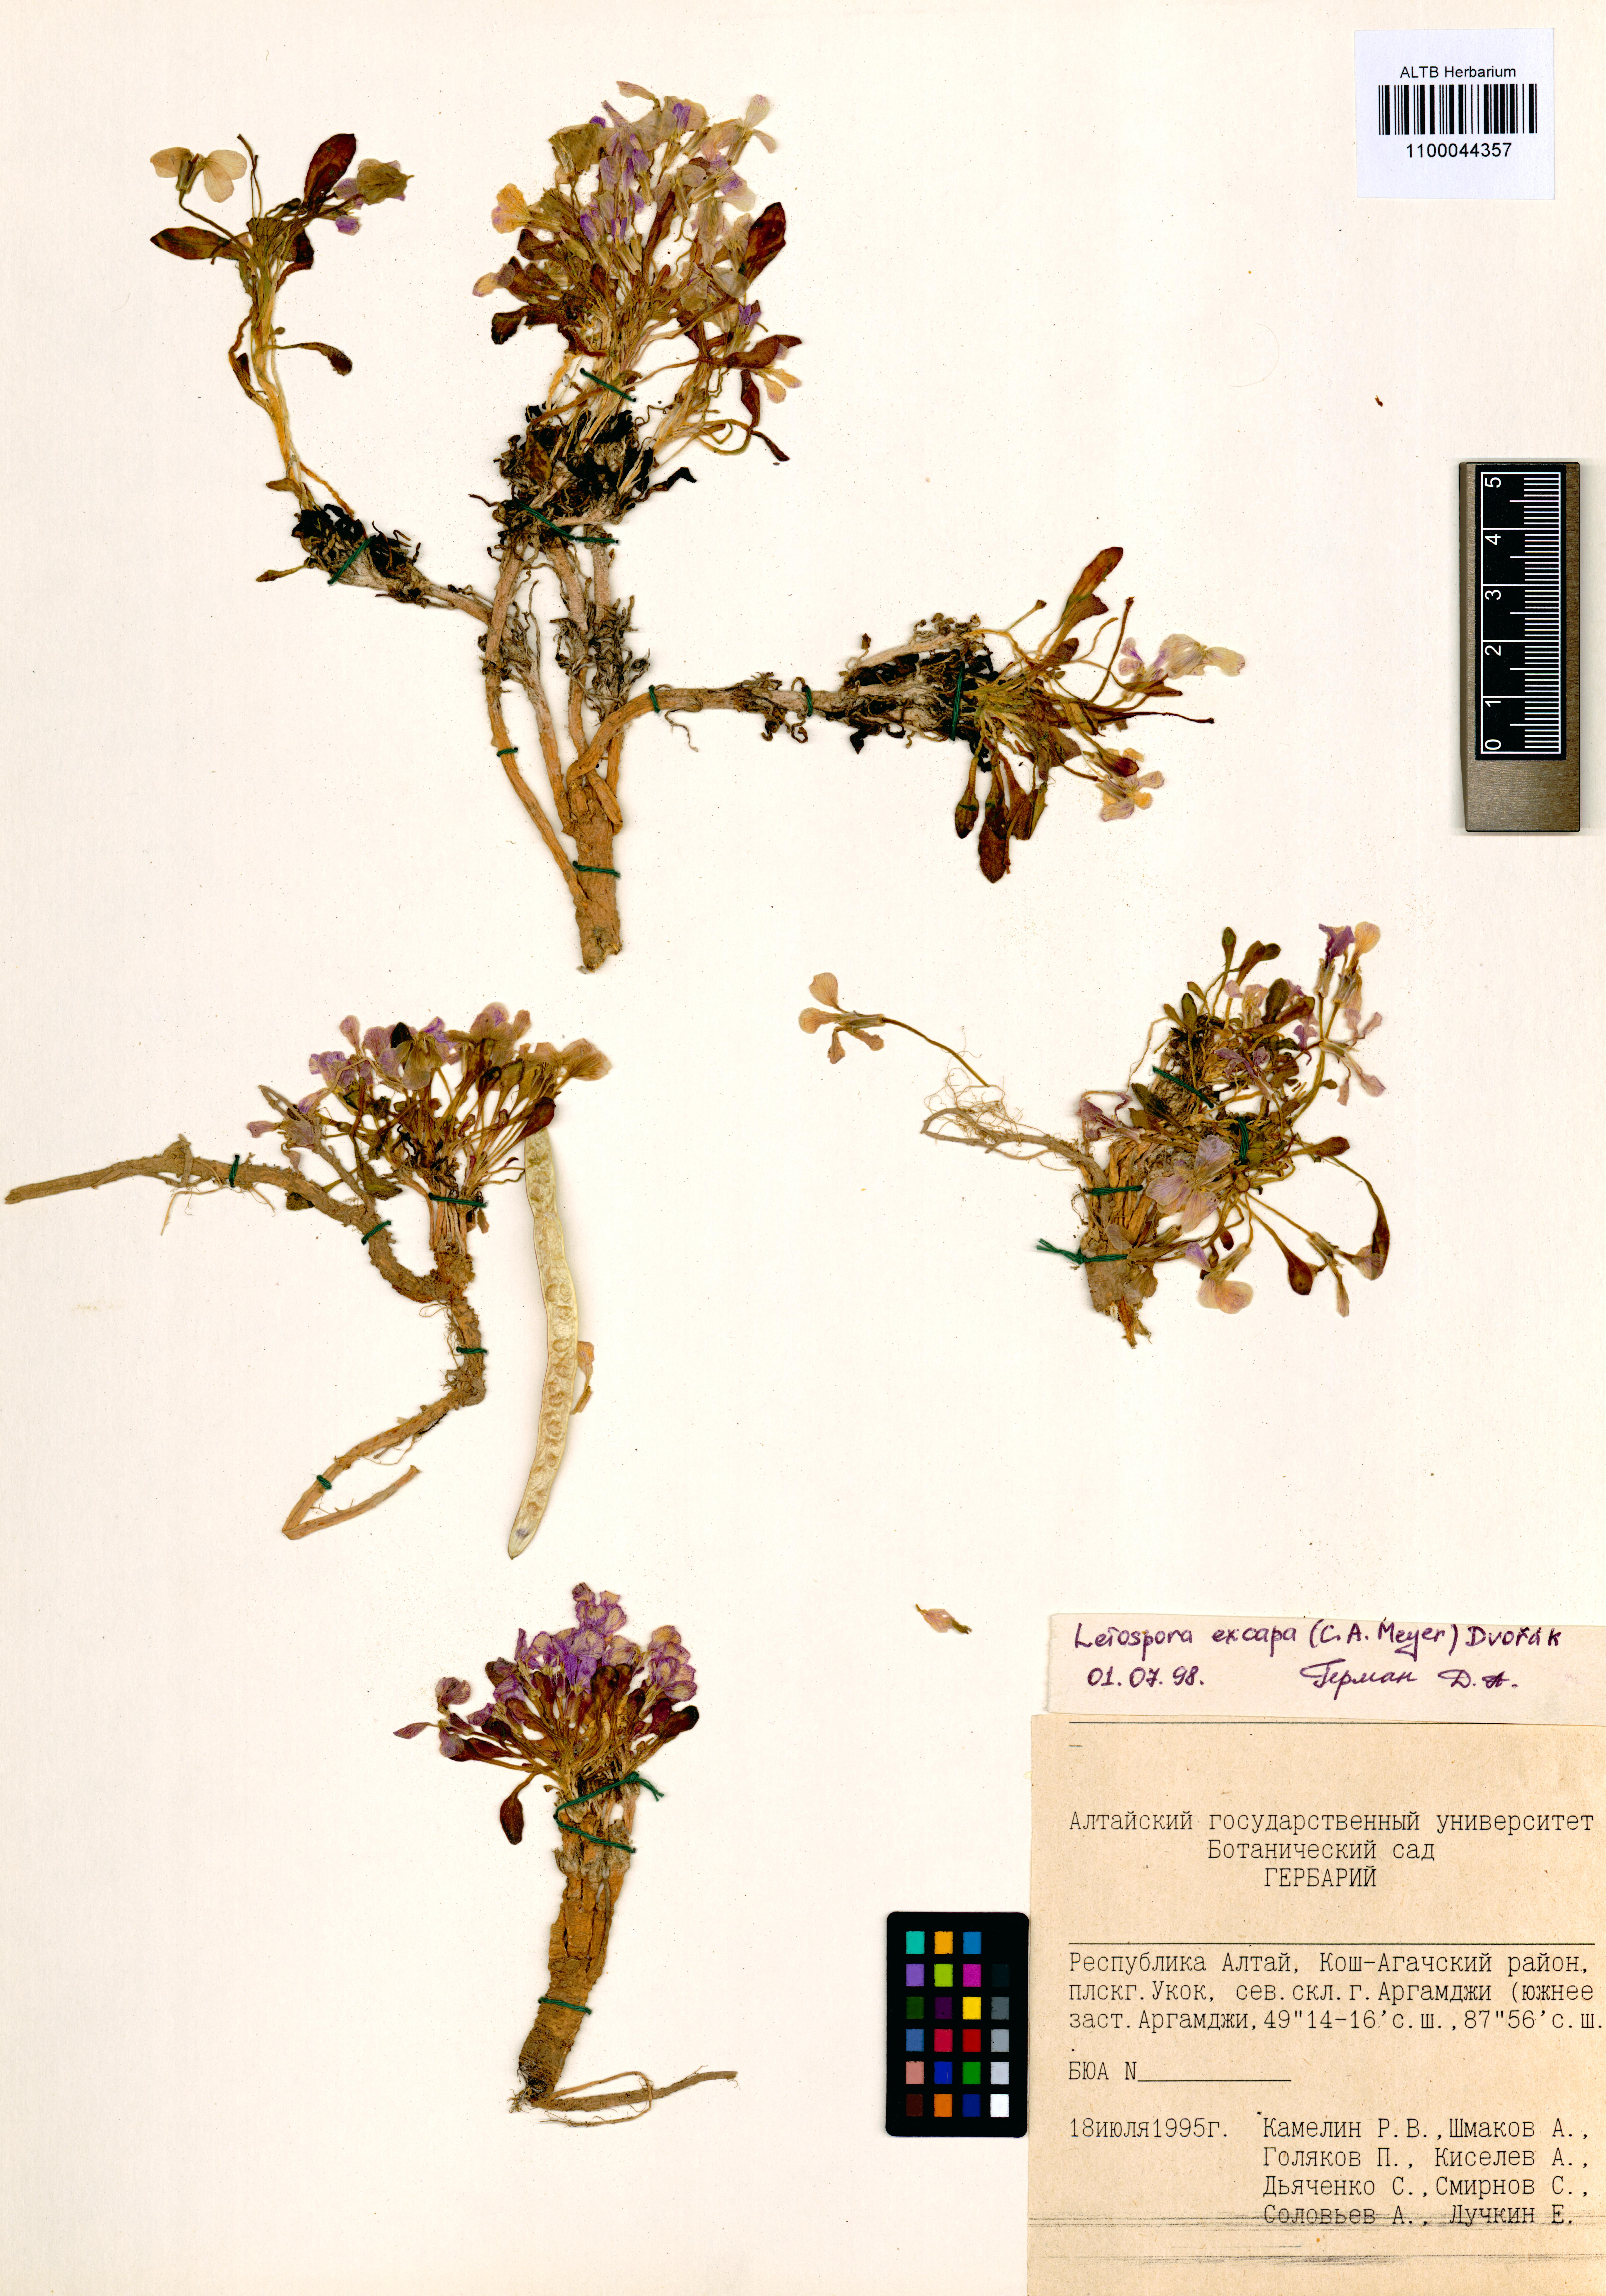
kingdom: Plantae
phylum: Tracheophyta
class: Magnoliopsida
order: Brassicales
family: Brassicaceae
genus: Leiospora
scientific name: Leiospora exscapa
